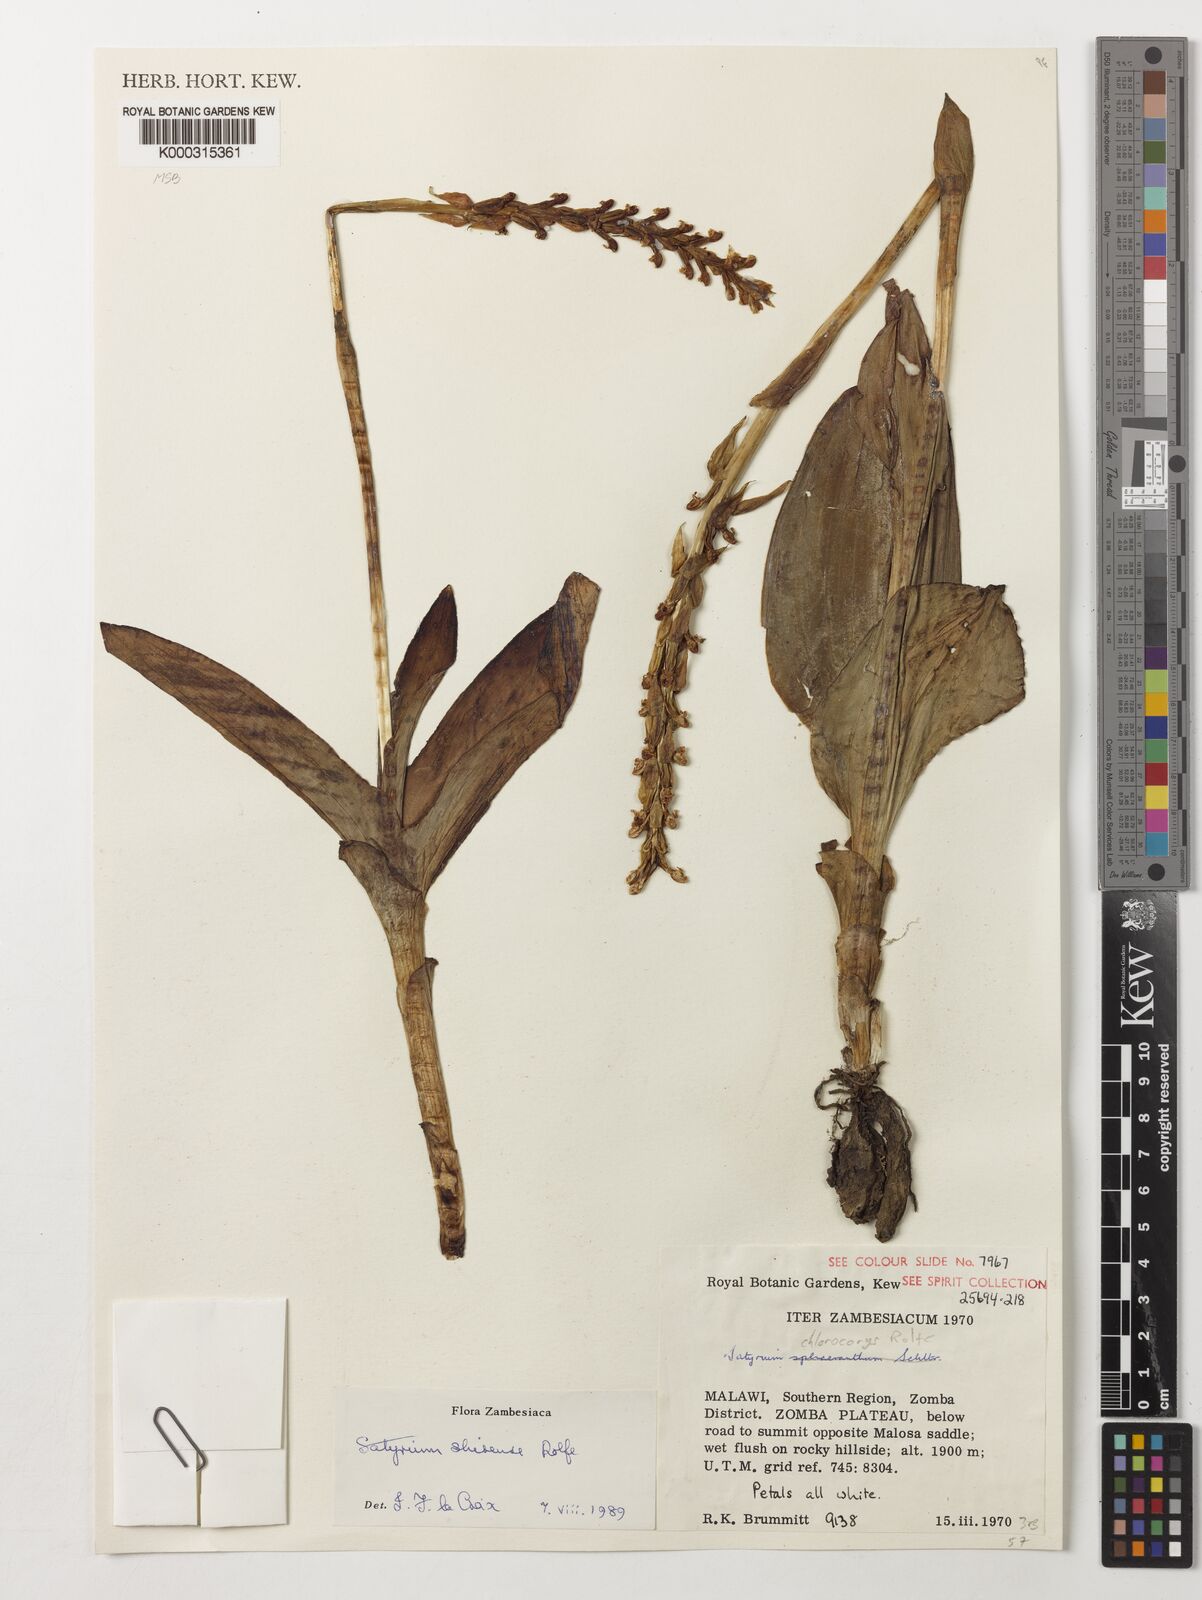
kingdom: Plantae
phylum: Tracheophyta
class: Liliopsida
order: Asparagales
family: Orchidaceae
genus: Satyrium
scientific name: Satyrium shirense
